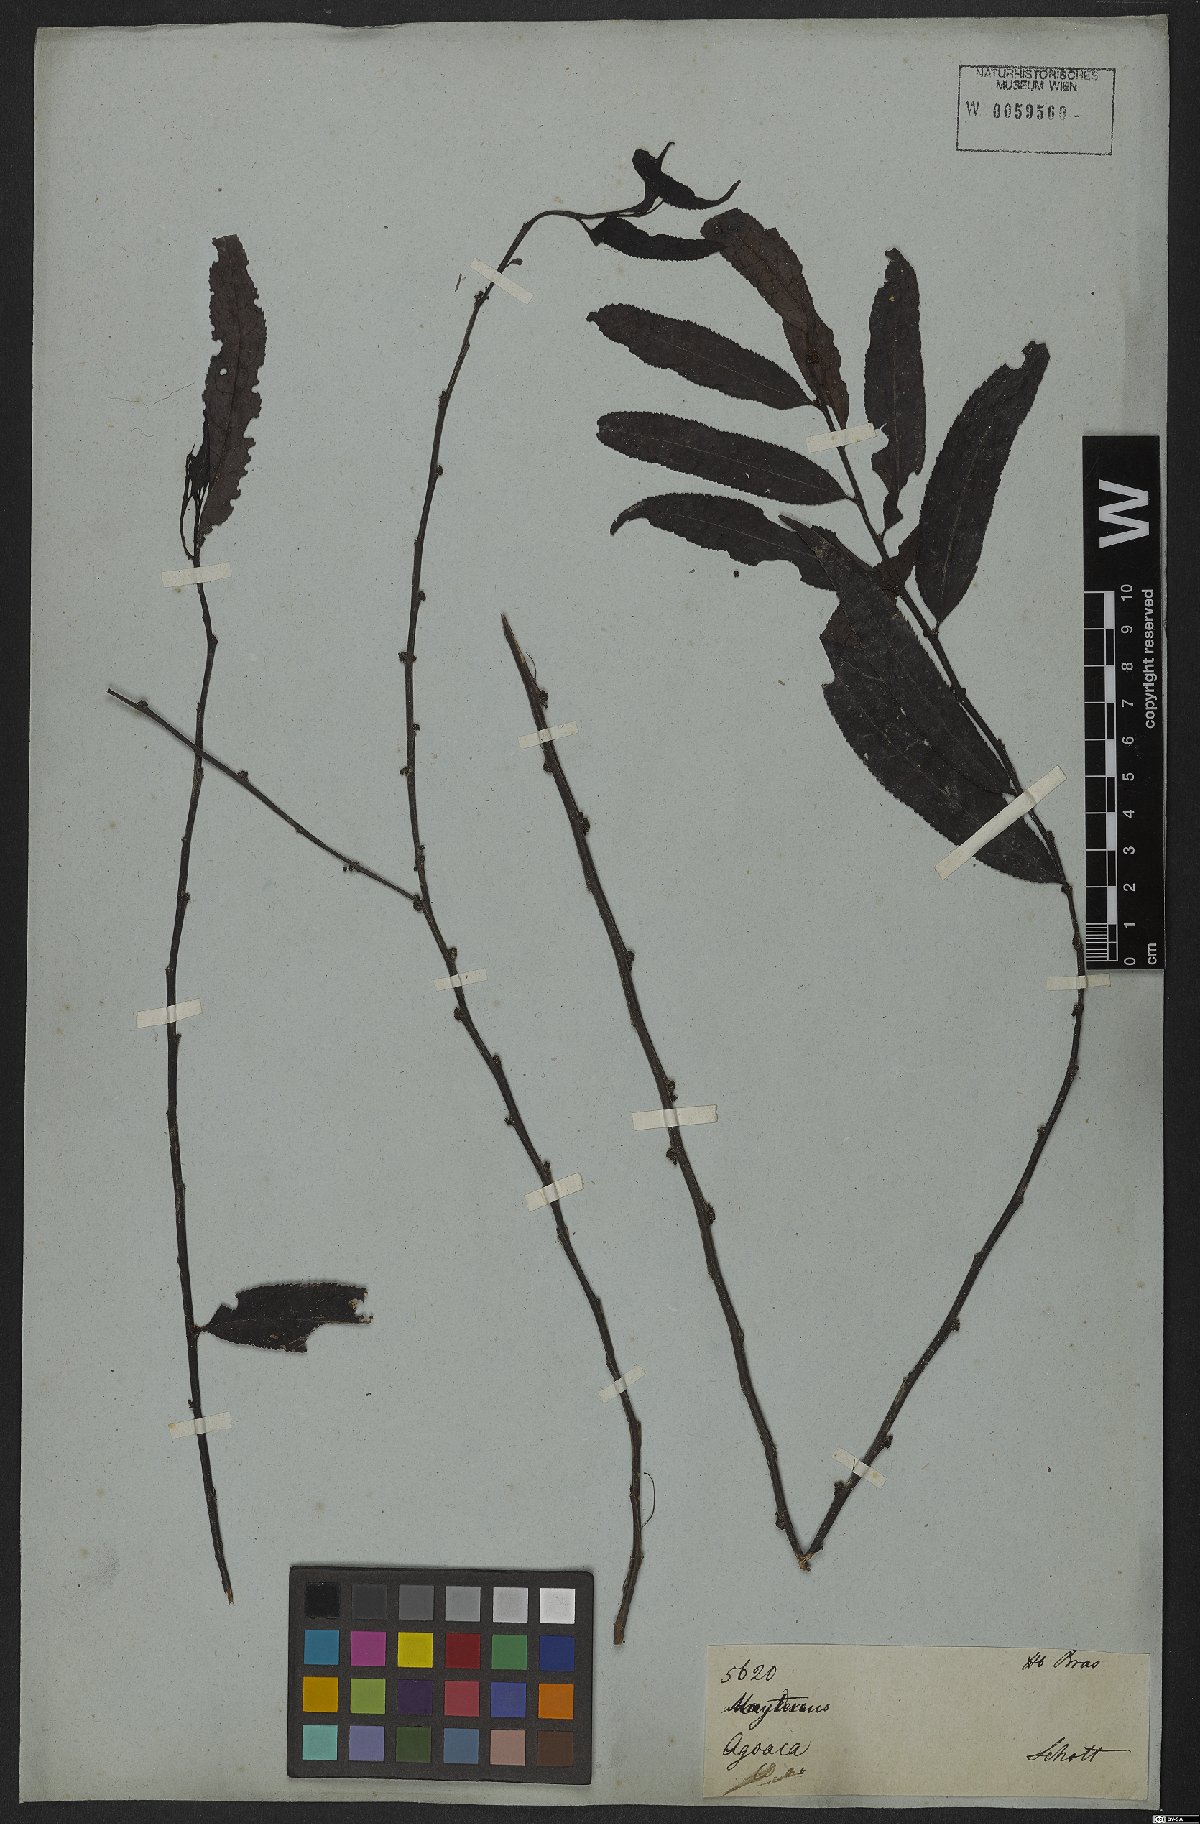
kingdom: Plantae
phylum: Tracheophyta
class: Magnoliopsida
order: Celastrales
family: Celastraceae
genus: Maytenus
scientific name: Maytenus salicifolia
